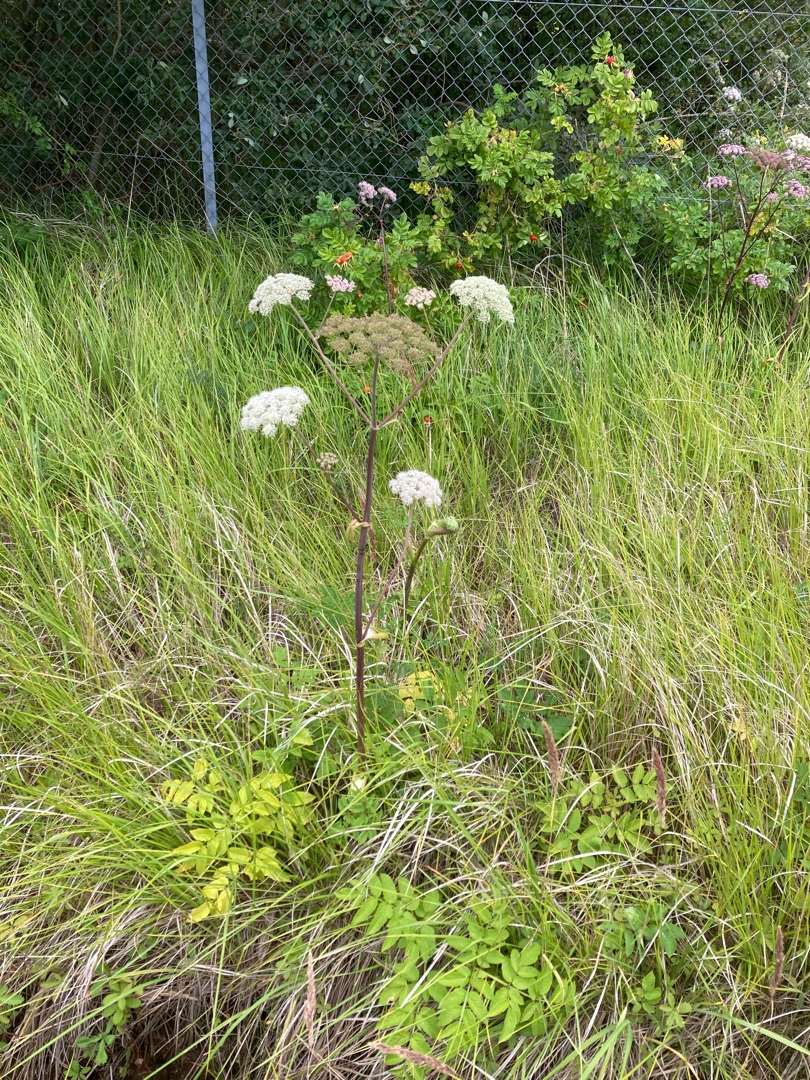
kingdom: Plantae
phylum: Tracheophyta
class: Magnoliopsida
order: Apiales
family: Apiaceae
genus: Angelica
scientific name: Angelica sylvestris
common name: Angelik
